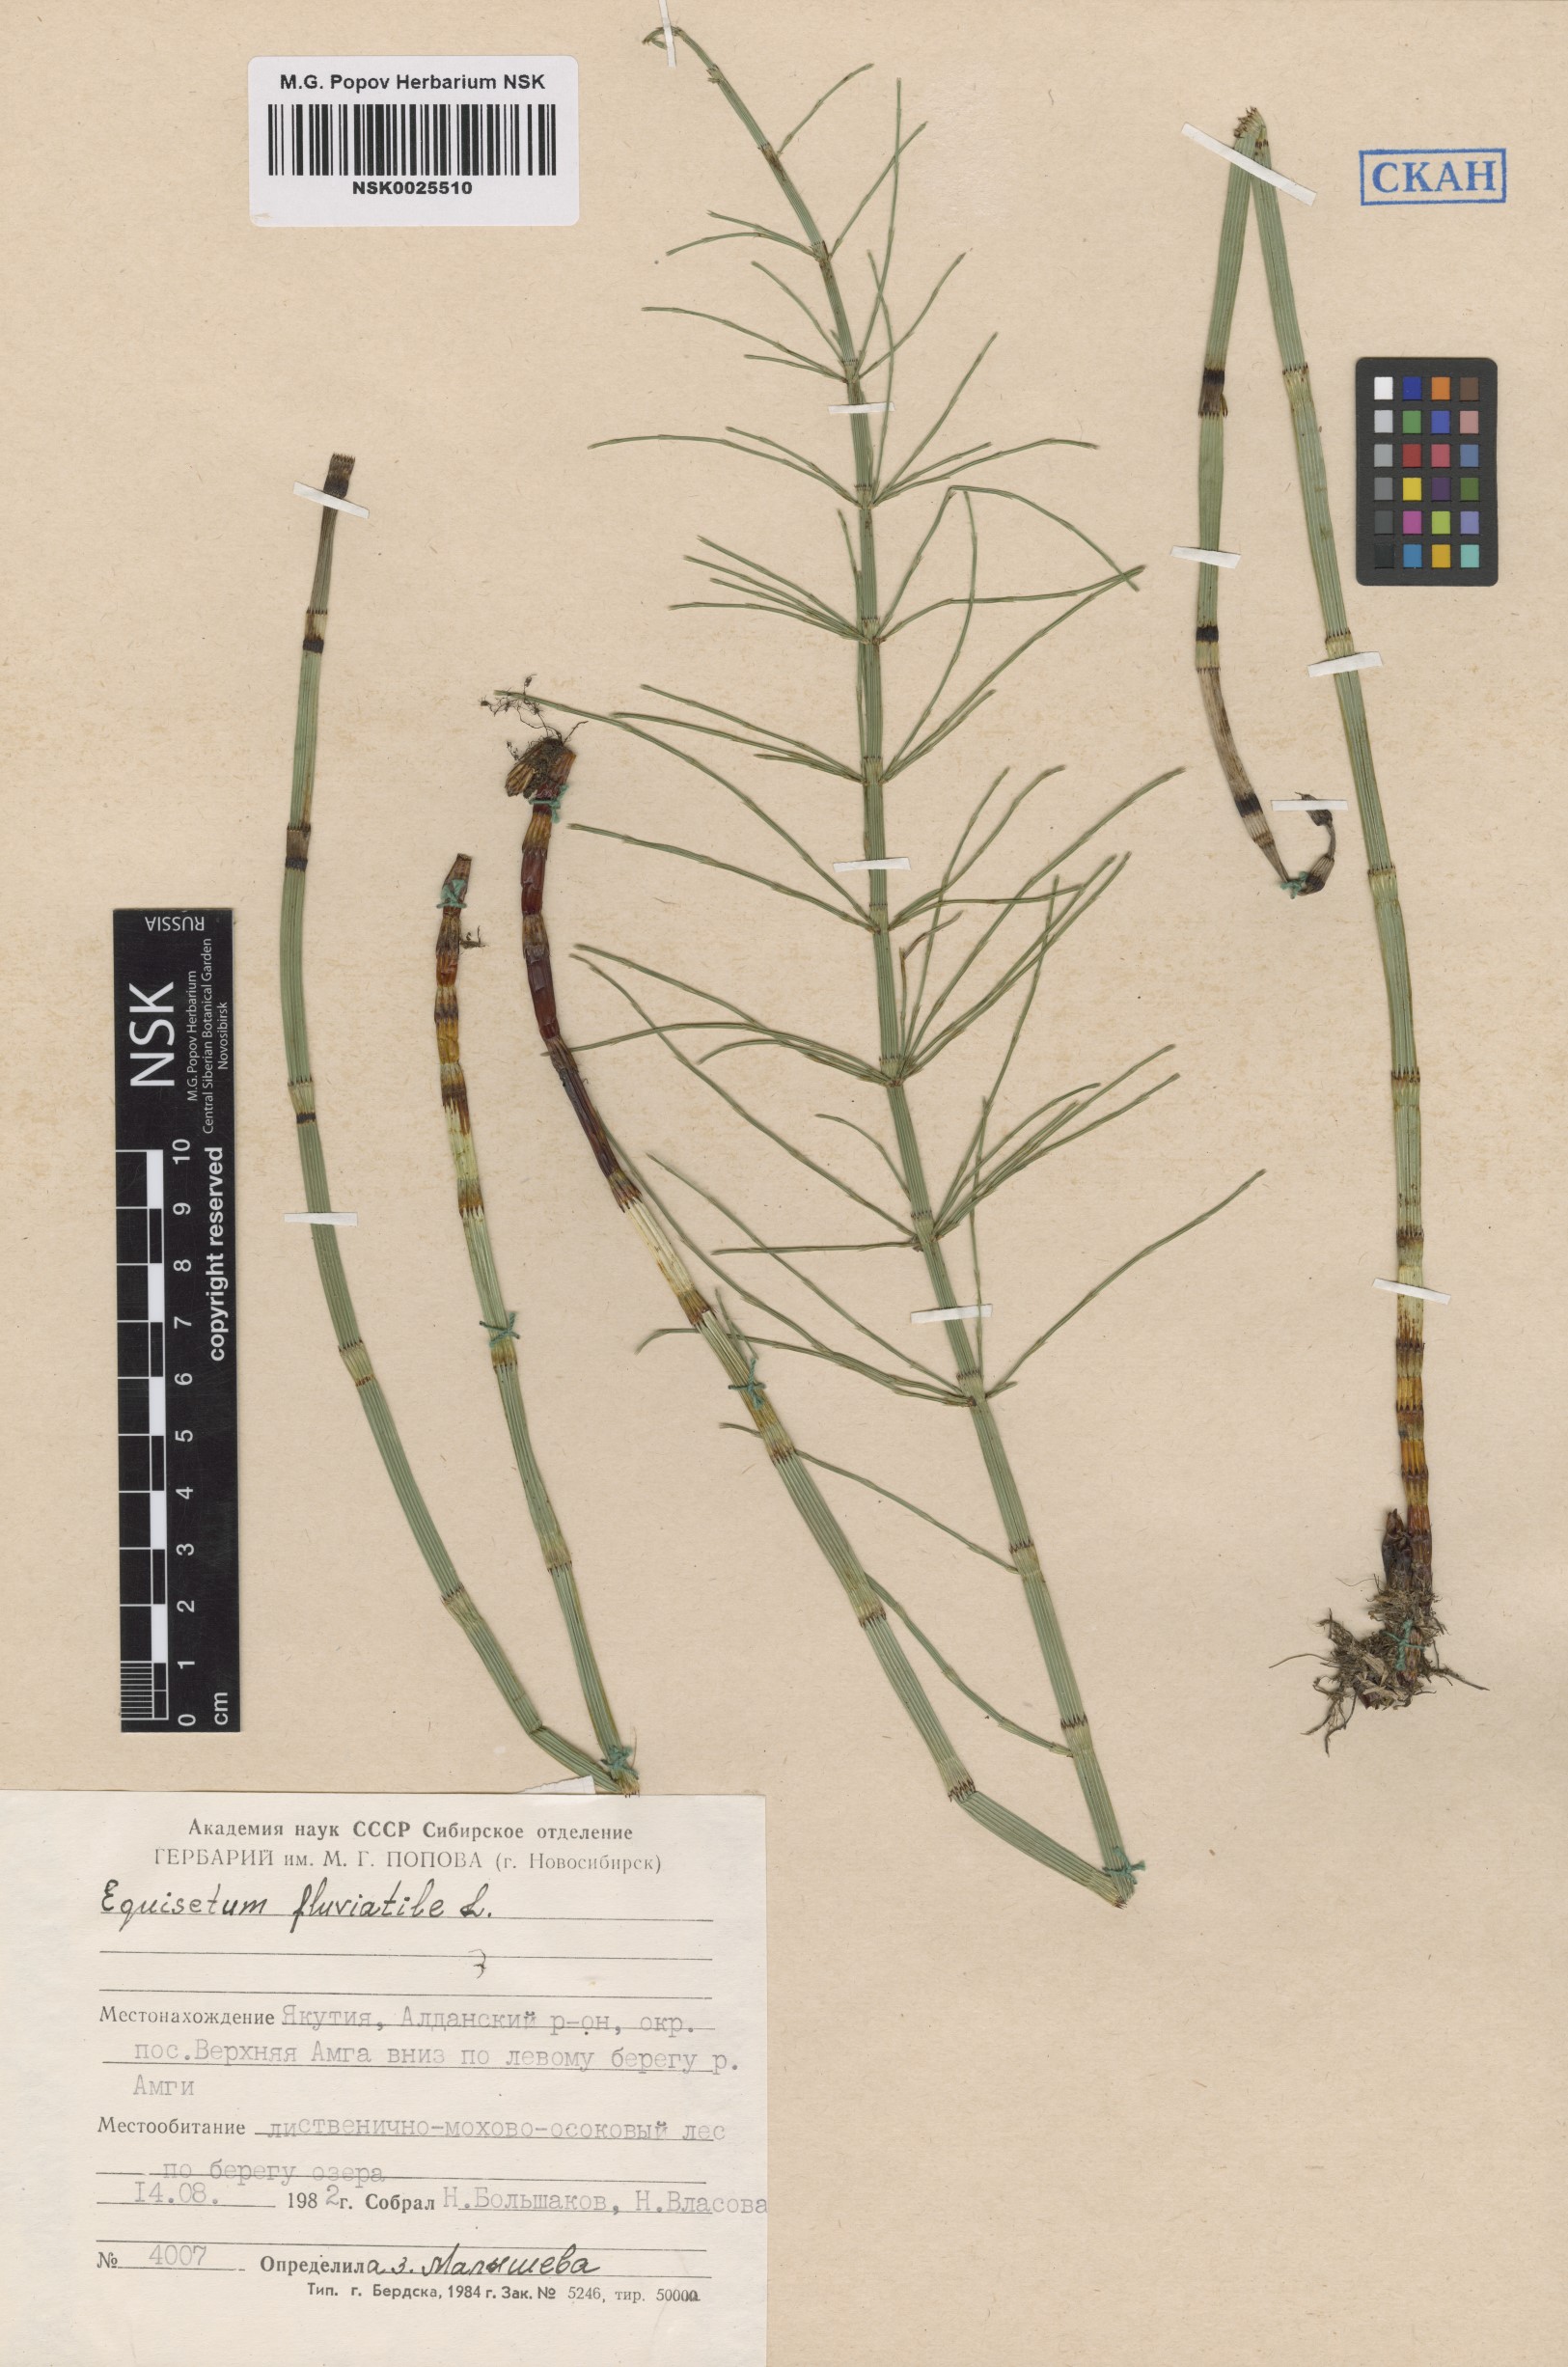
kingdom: Plantae
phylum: Tracheophyta
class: Polypodiopsida
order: Equisetales
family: Equisetaceae
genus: Equisetum
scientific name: Equisetum fluviatile
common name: Water horsetail
